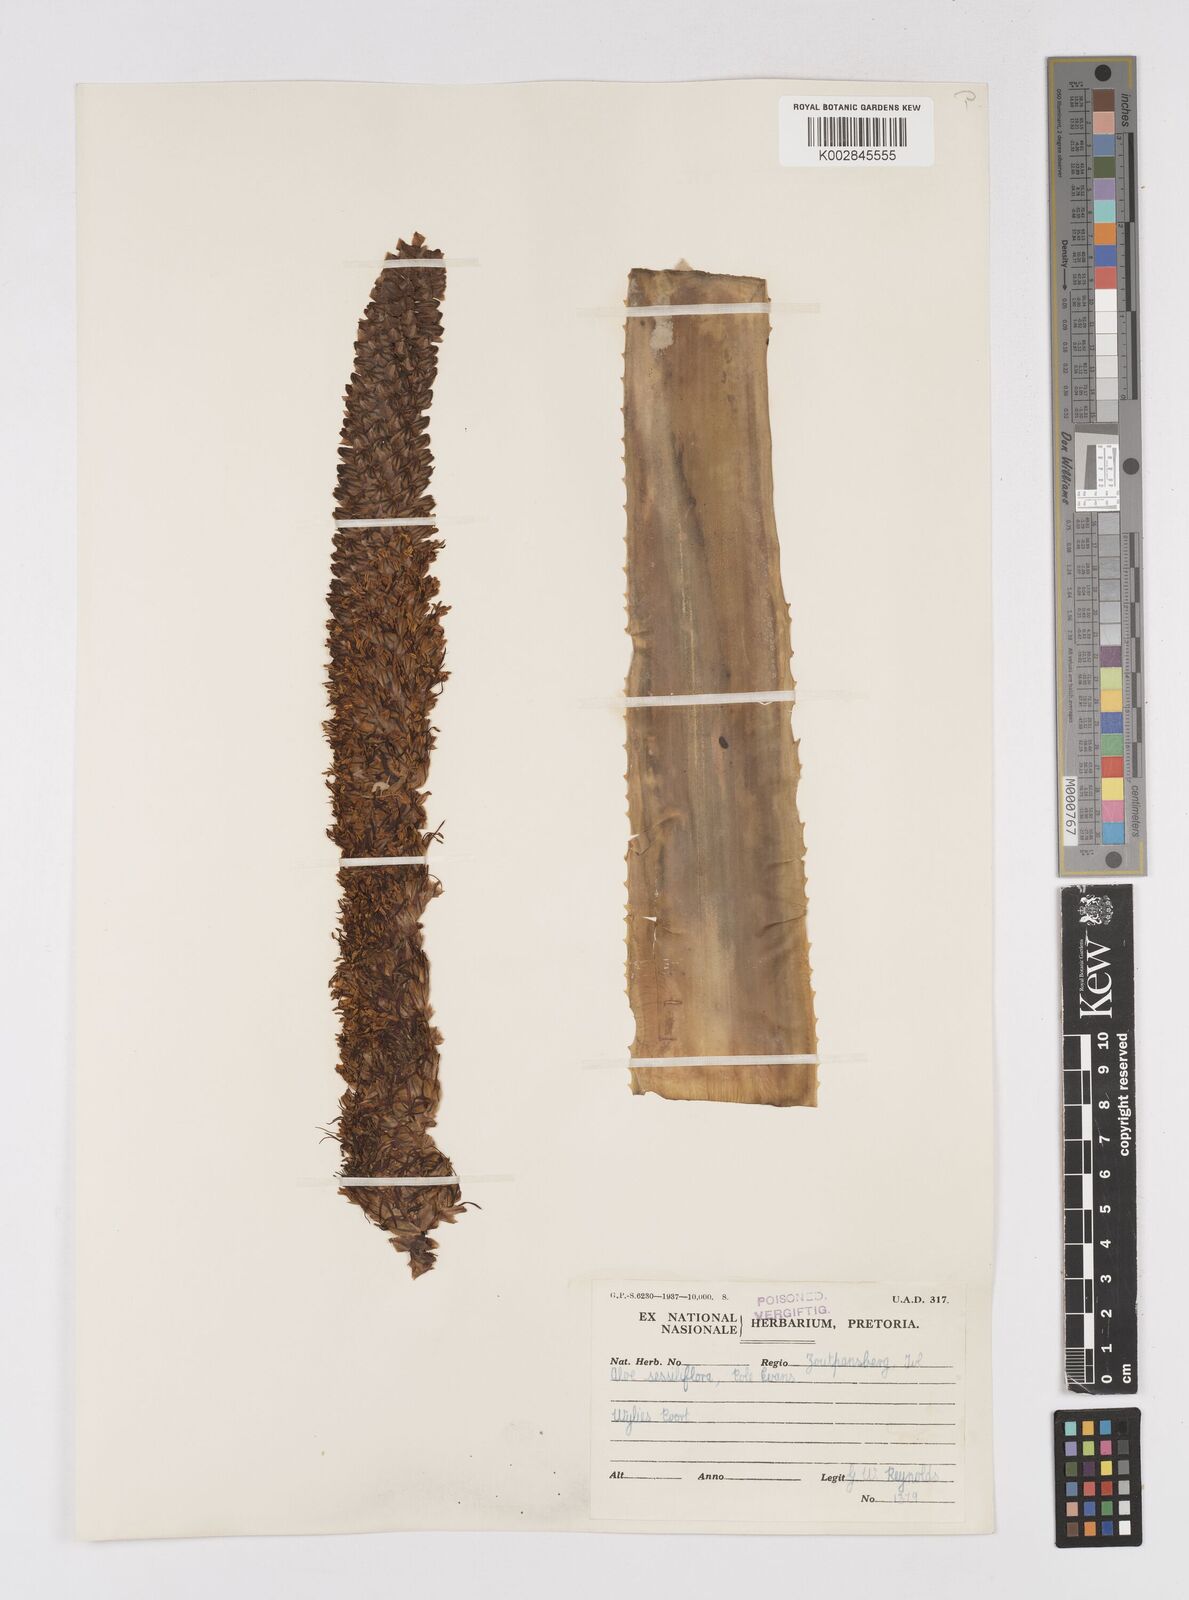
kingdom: Plantae
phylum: Tracheophyta
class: Liliopsida
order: Asparagales
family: Asphodelaceae
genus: Aloe
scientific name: Aloe spicata
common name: Gazaland aloe
